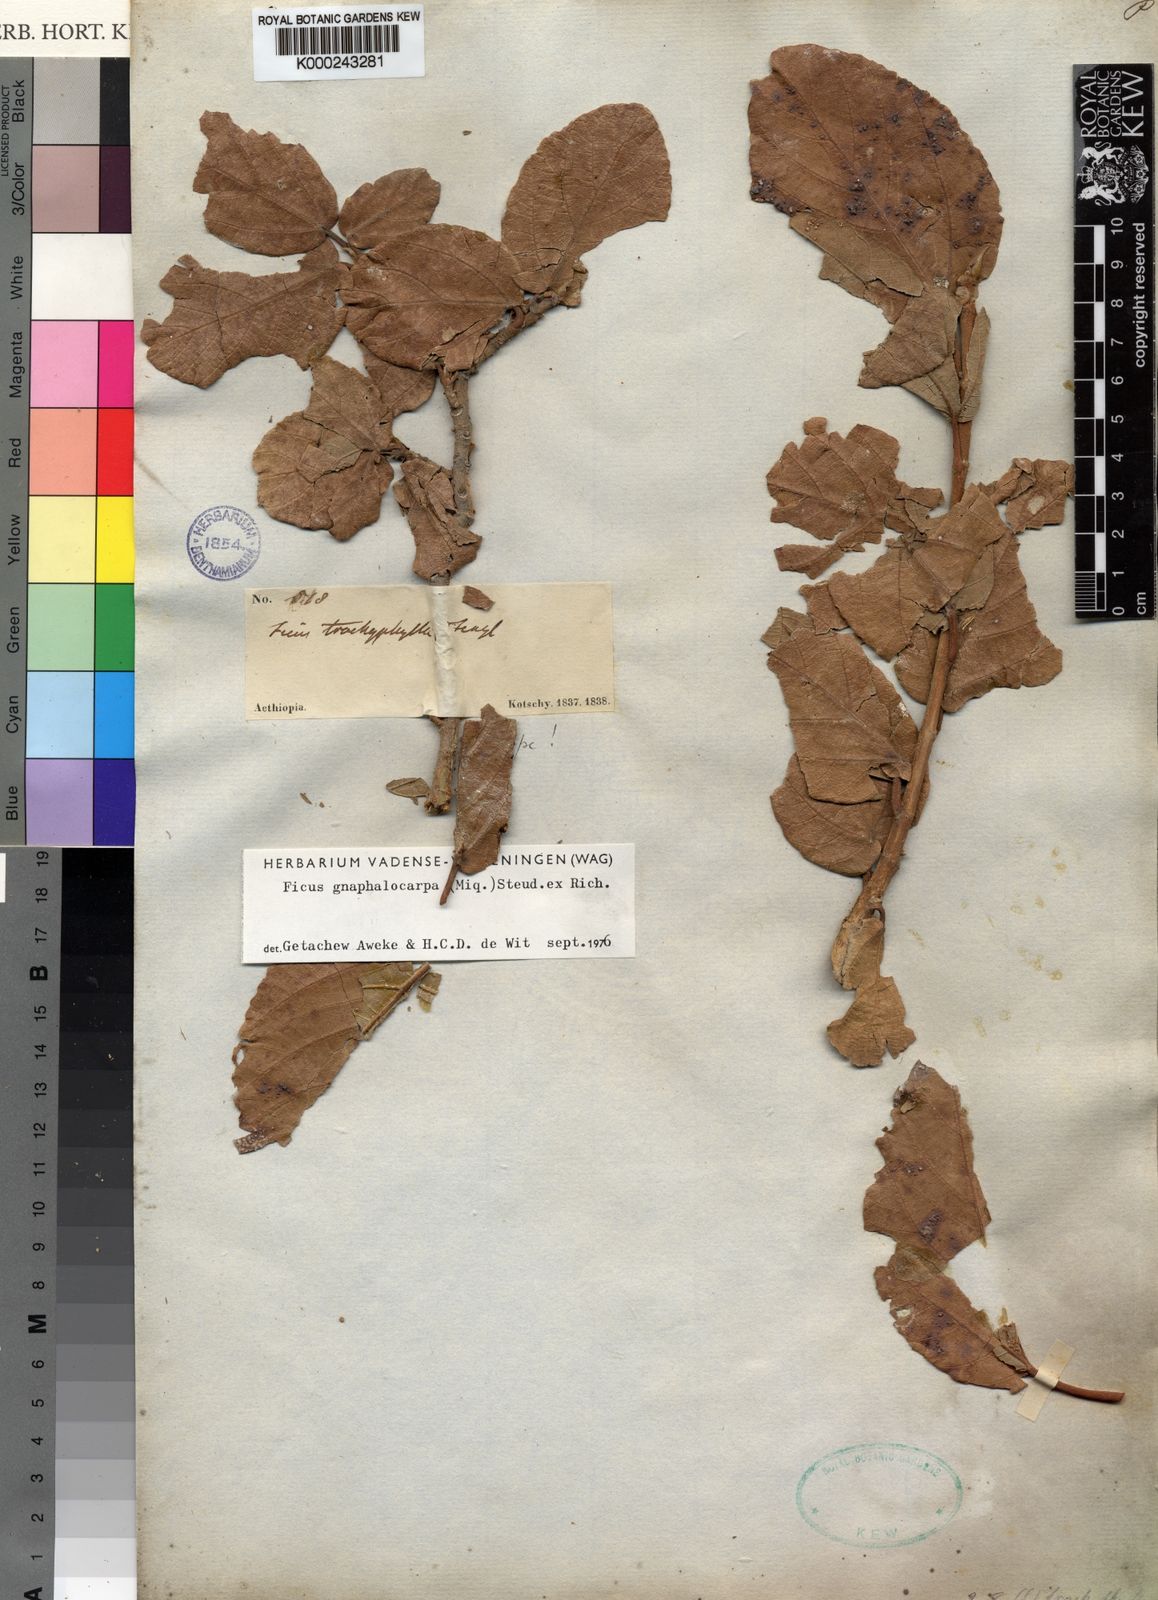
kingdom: Plantae
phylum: Tracheophyta
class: Magnoliopsida
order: Rosales
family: Moraceae
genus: Ficus
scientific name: Ficus sycomorus
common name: Sycomore
